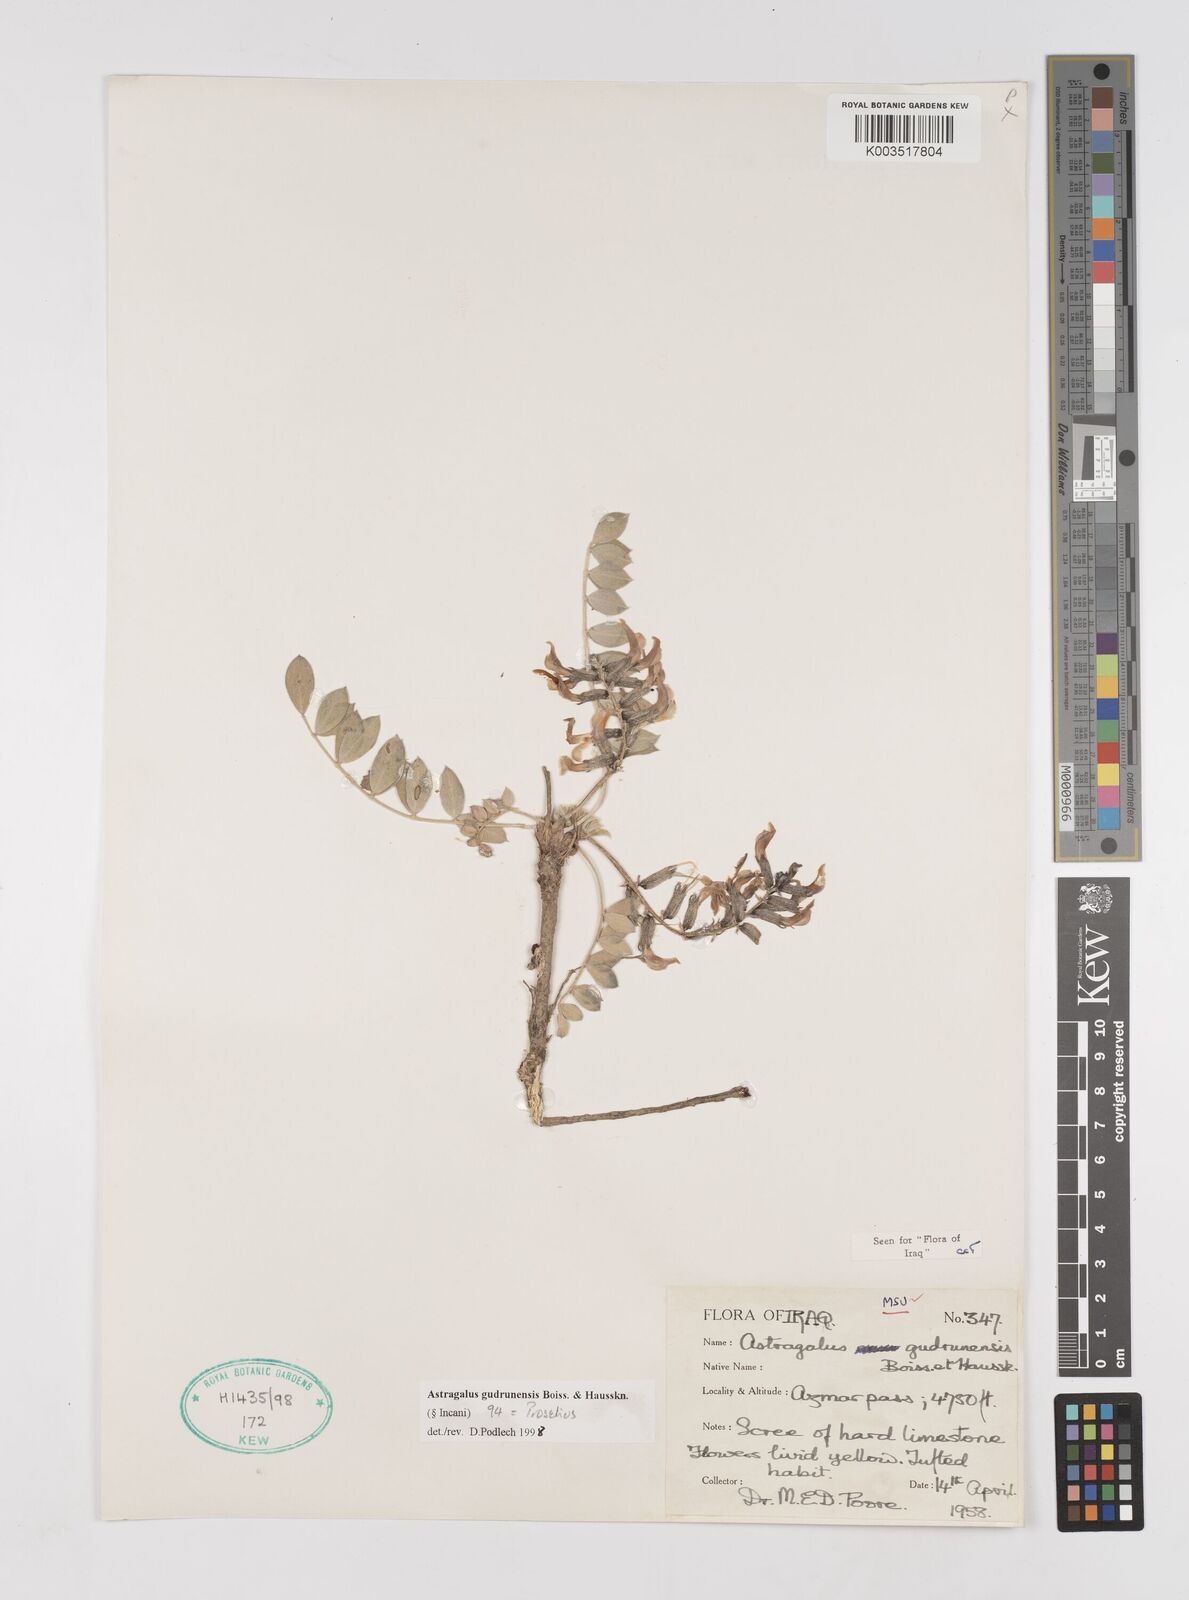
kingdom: Plantae
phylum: Tracheophyta
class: Magnoliopsida
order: Fabales
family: Fabaceae
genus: Astragalus
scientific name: Astragalus gudrunensis
